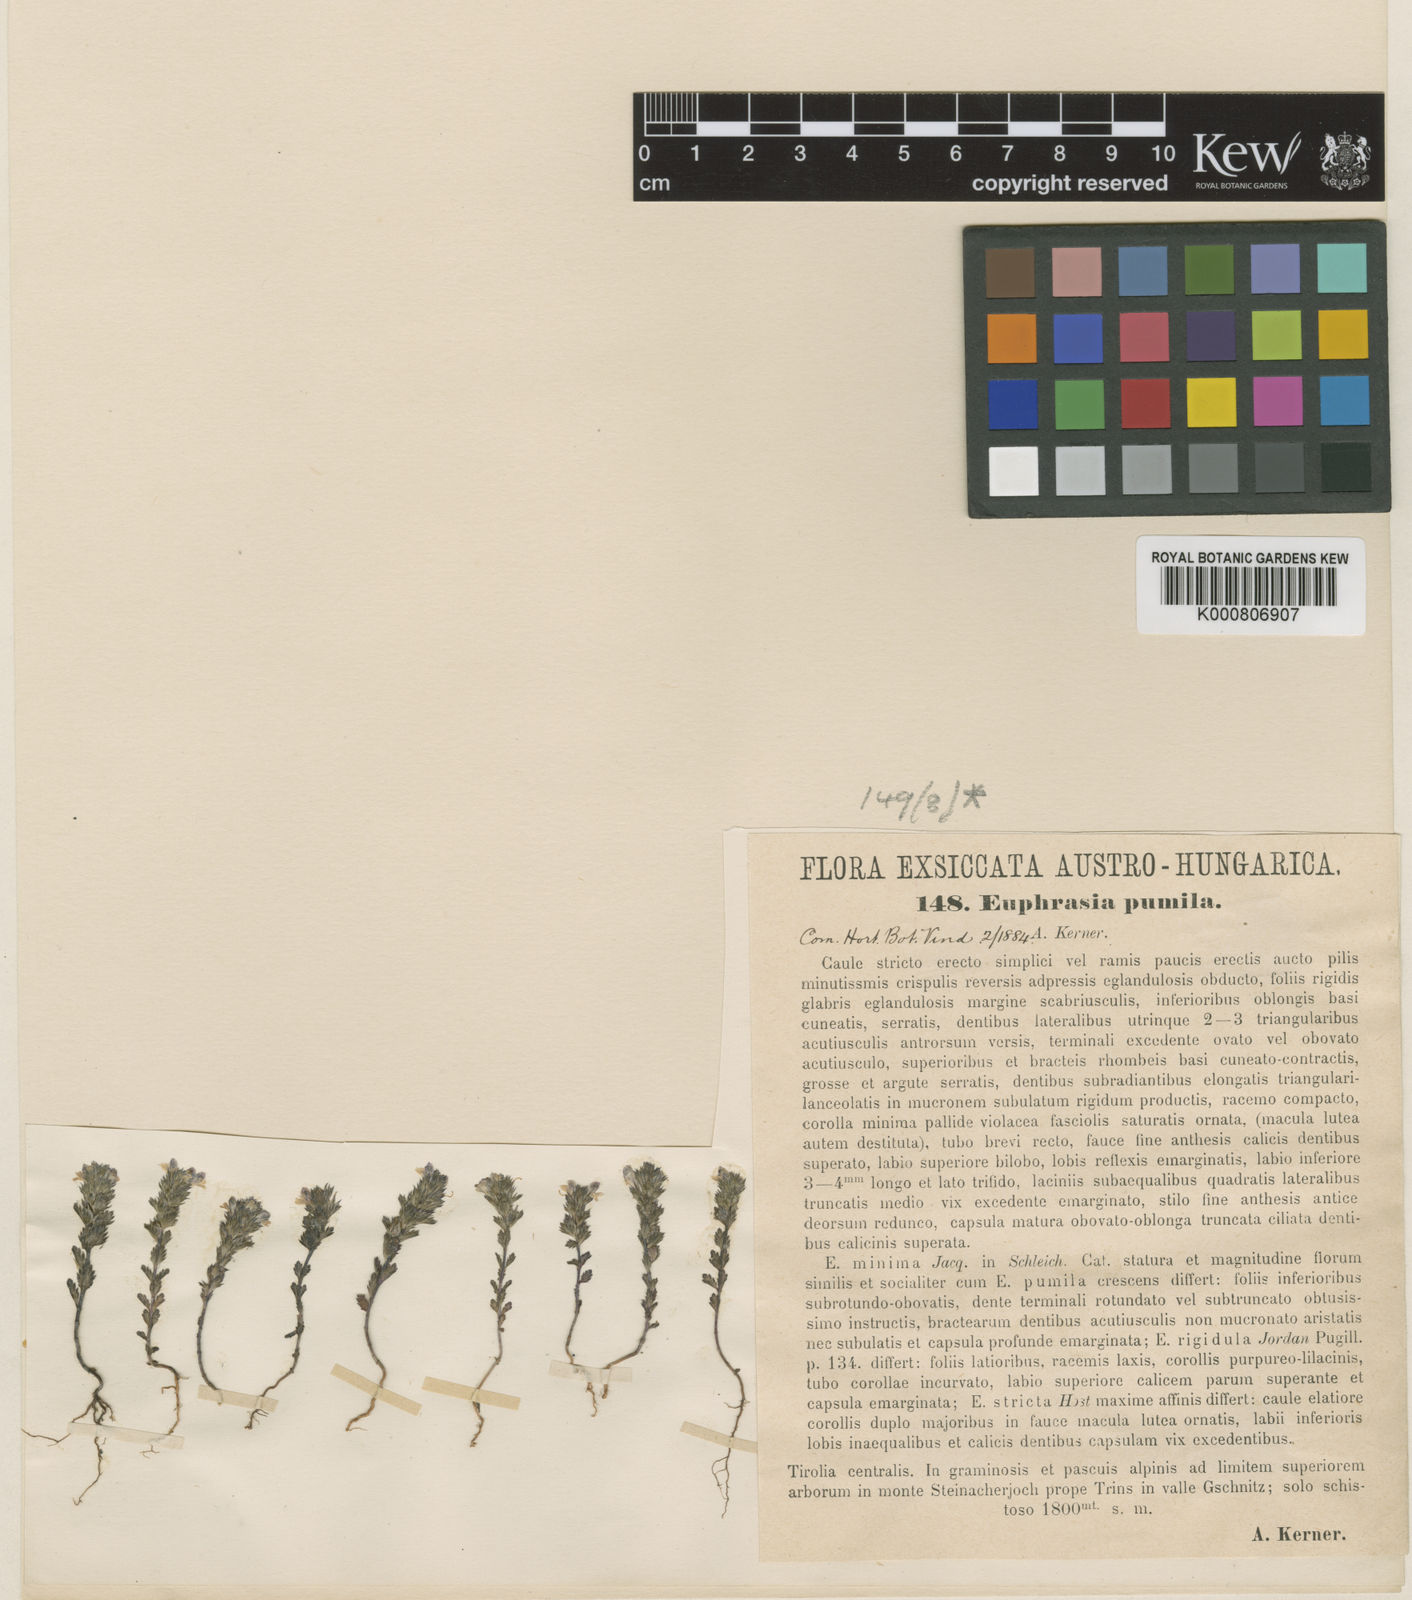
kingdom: Plantae
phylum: Tracheophyta
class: Magnoliopsida
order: Lamiales
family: Orobanchaceae
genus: Euphrasia
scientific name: Euphrasia
